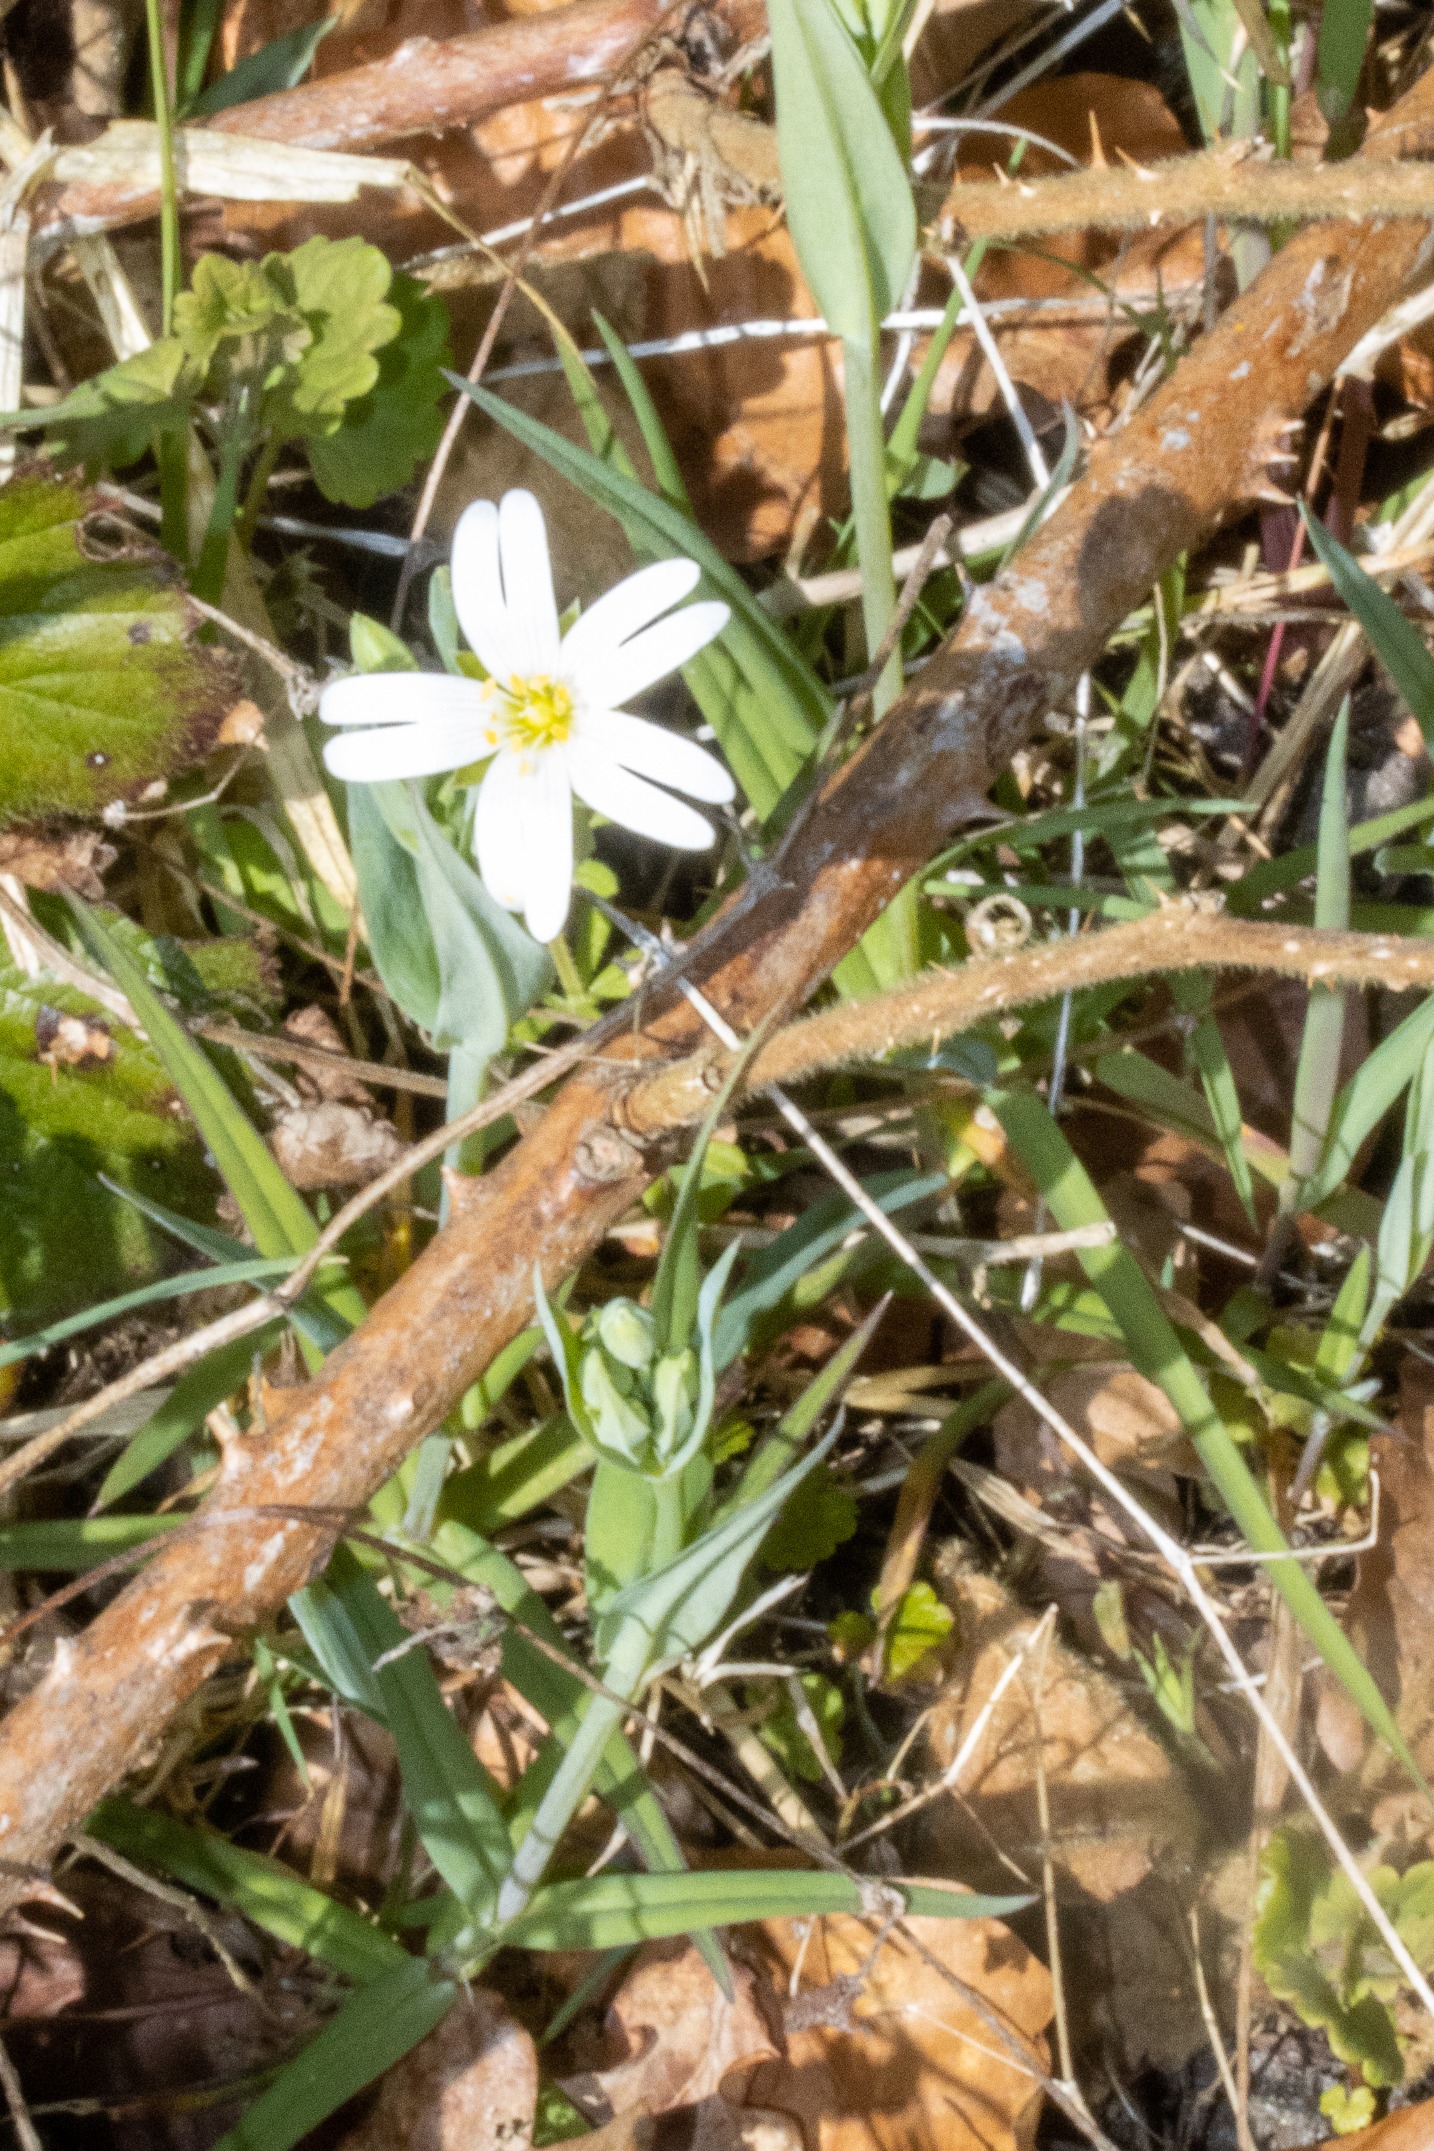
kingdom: Plantae
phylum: Tracheophyta
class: Magnoliopsida
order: Caryophyllales
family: Caryophyllaceae
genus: Rabelera
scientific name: Rabelera holostea
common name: Stor fladstjerne
